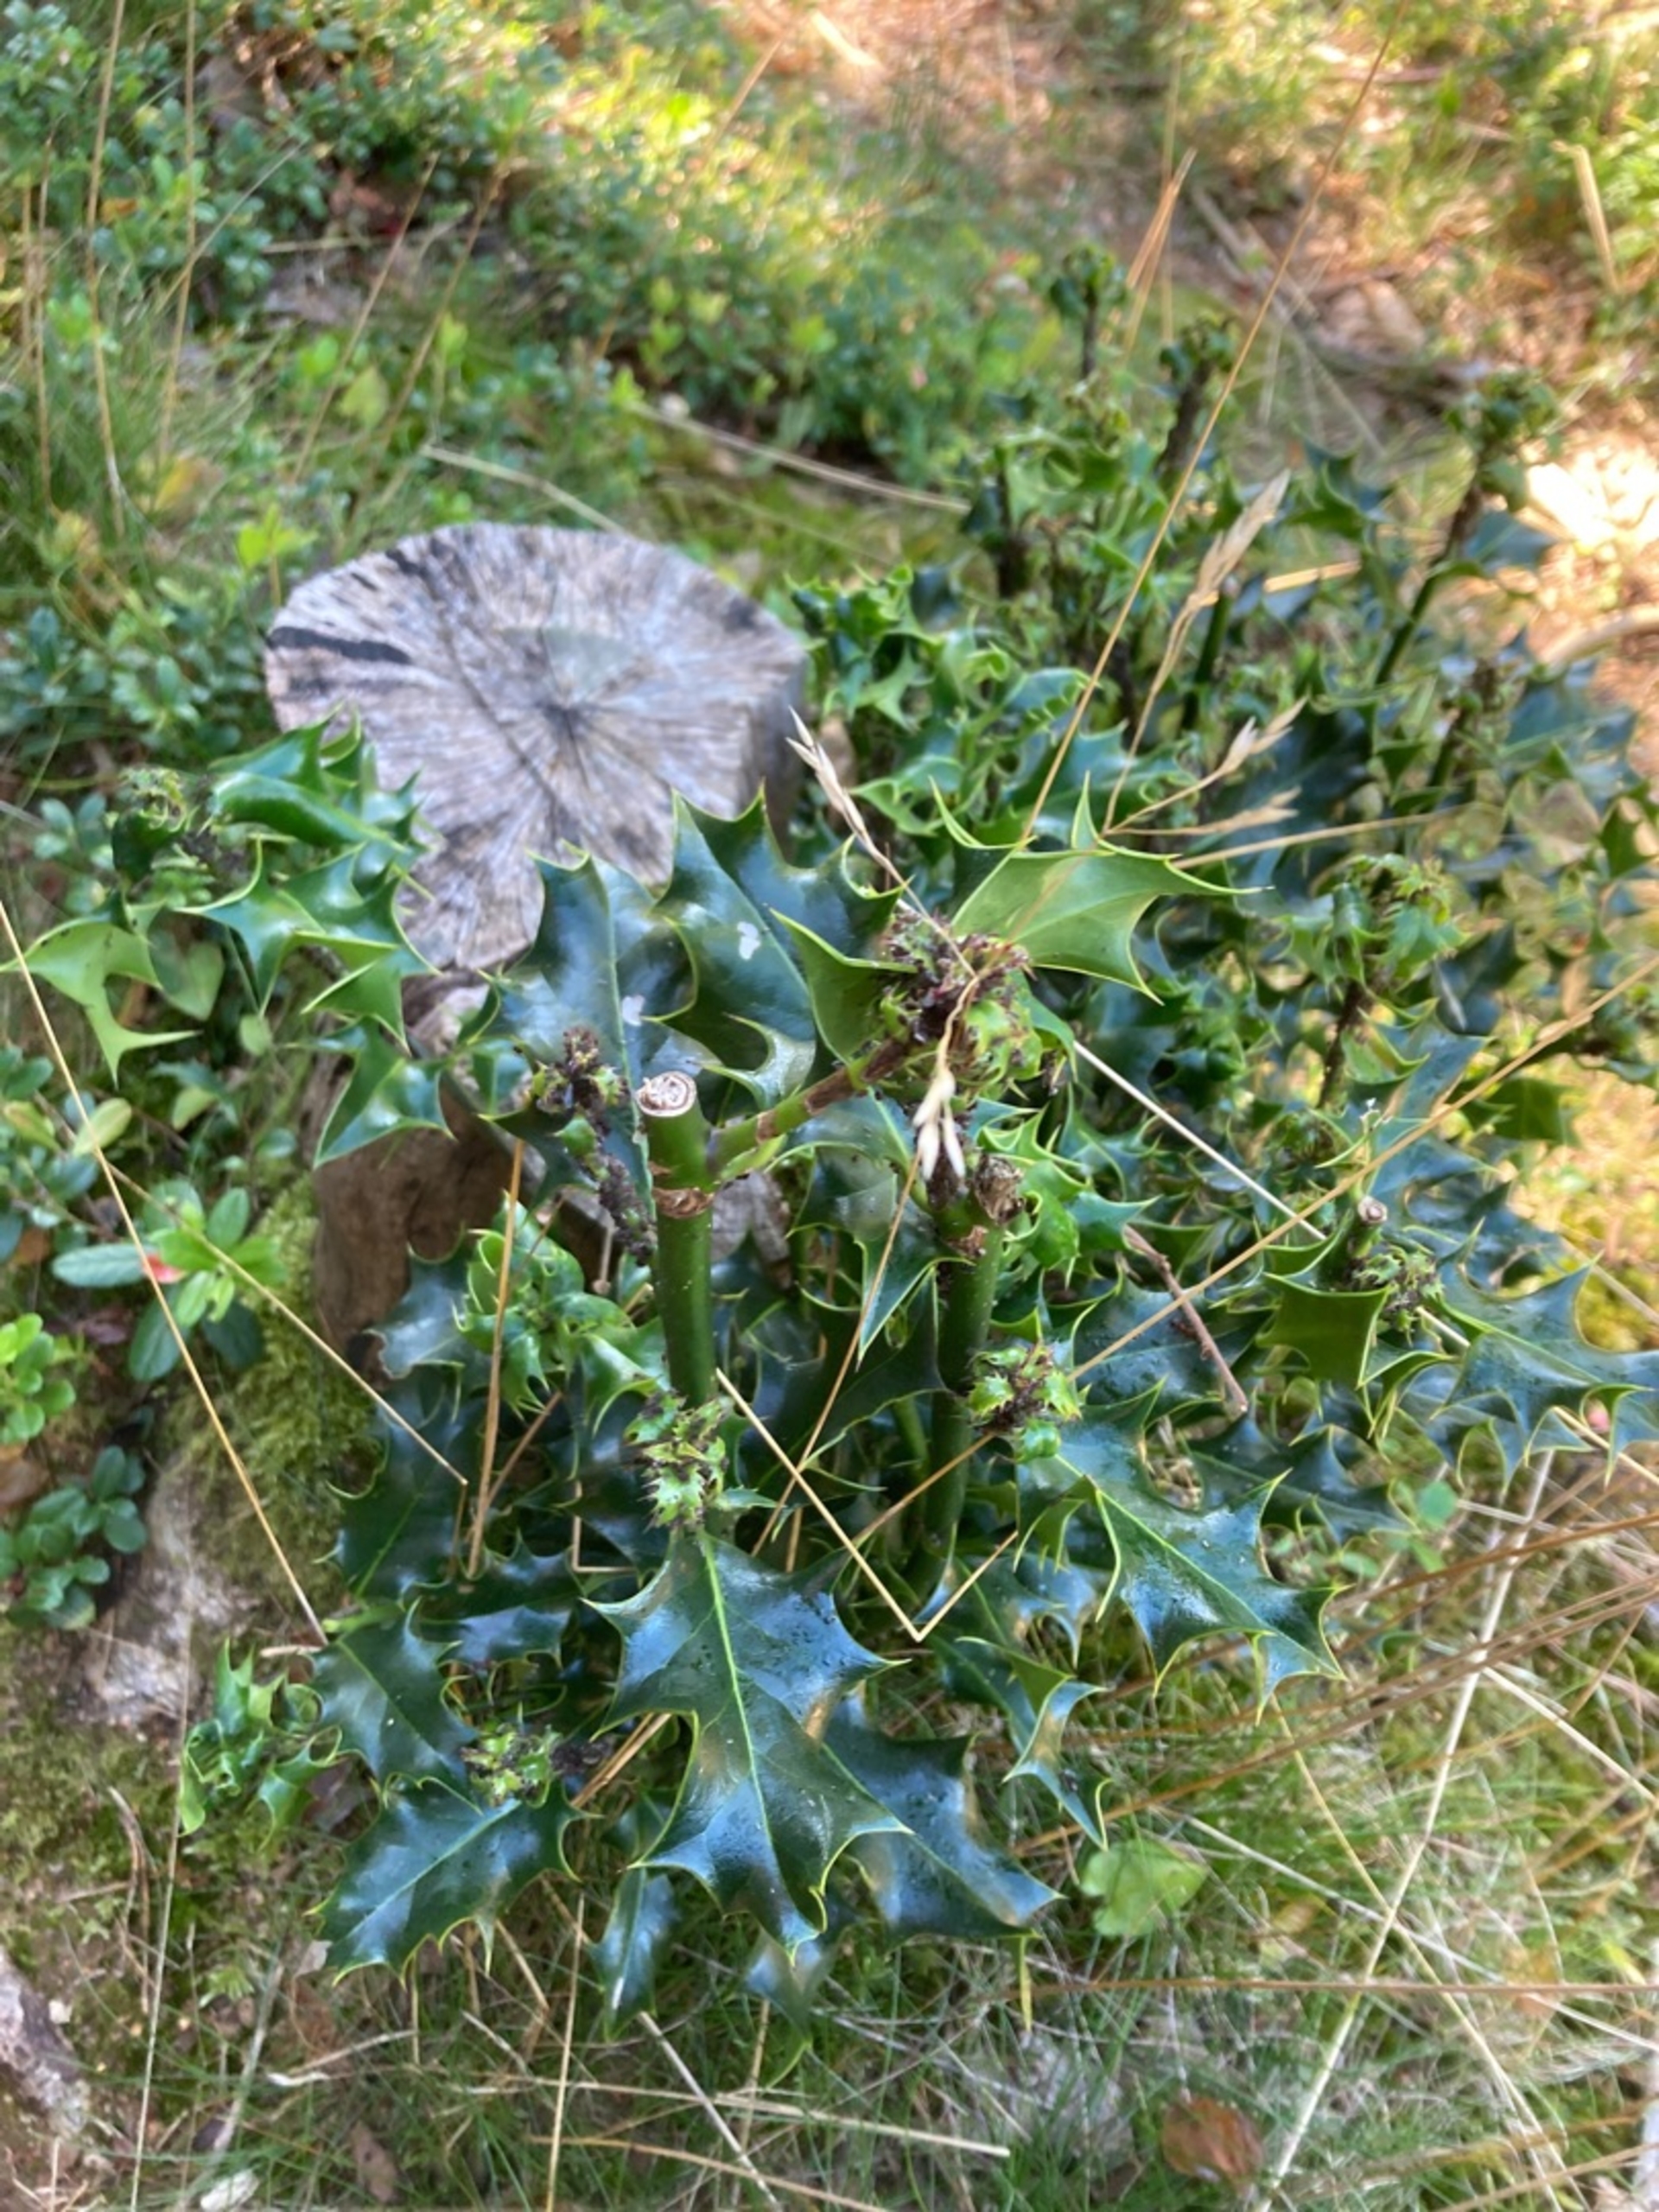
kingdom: Plantae
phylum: Tracheophyta
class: Magnoliopsida
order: Aquifoliales
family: Aquifoliaceae
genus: Ilex
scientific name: Ilex aquifolium
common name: Kristtorn
